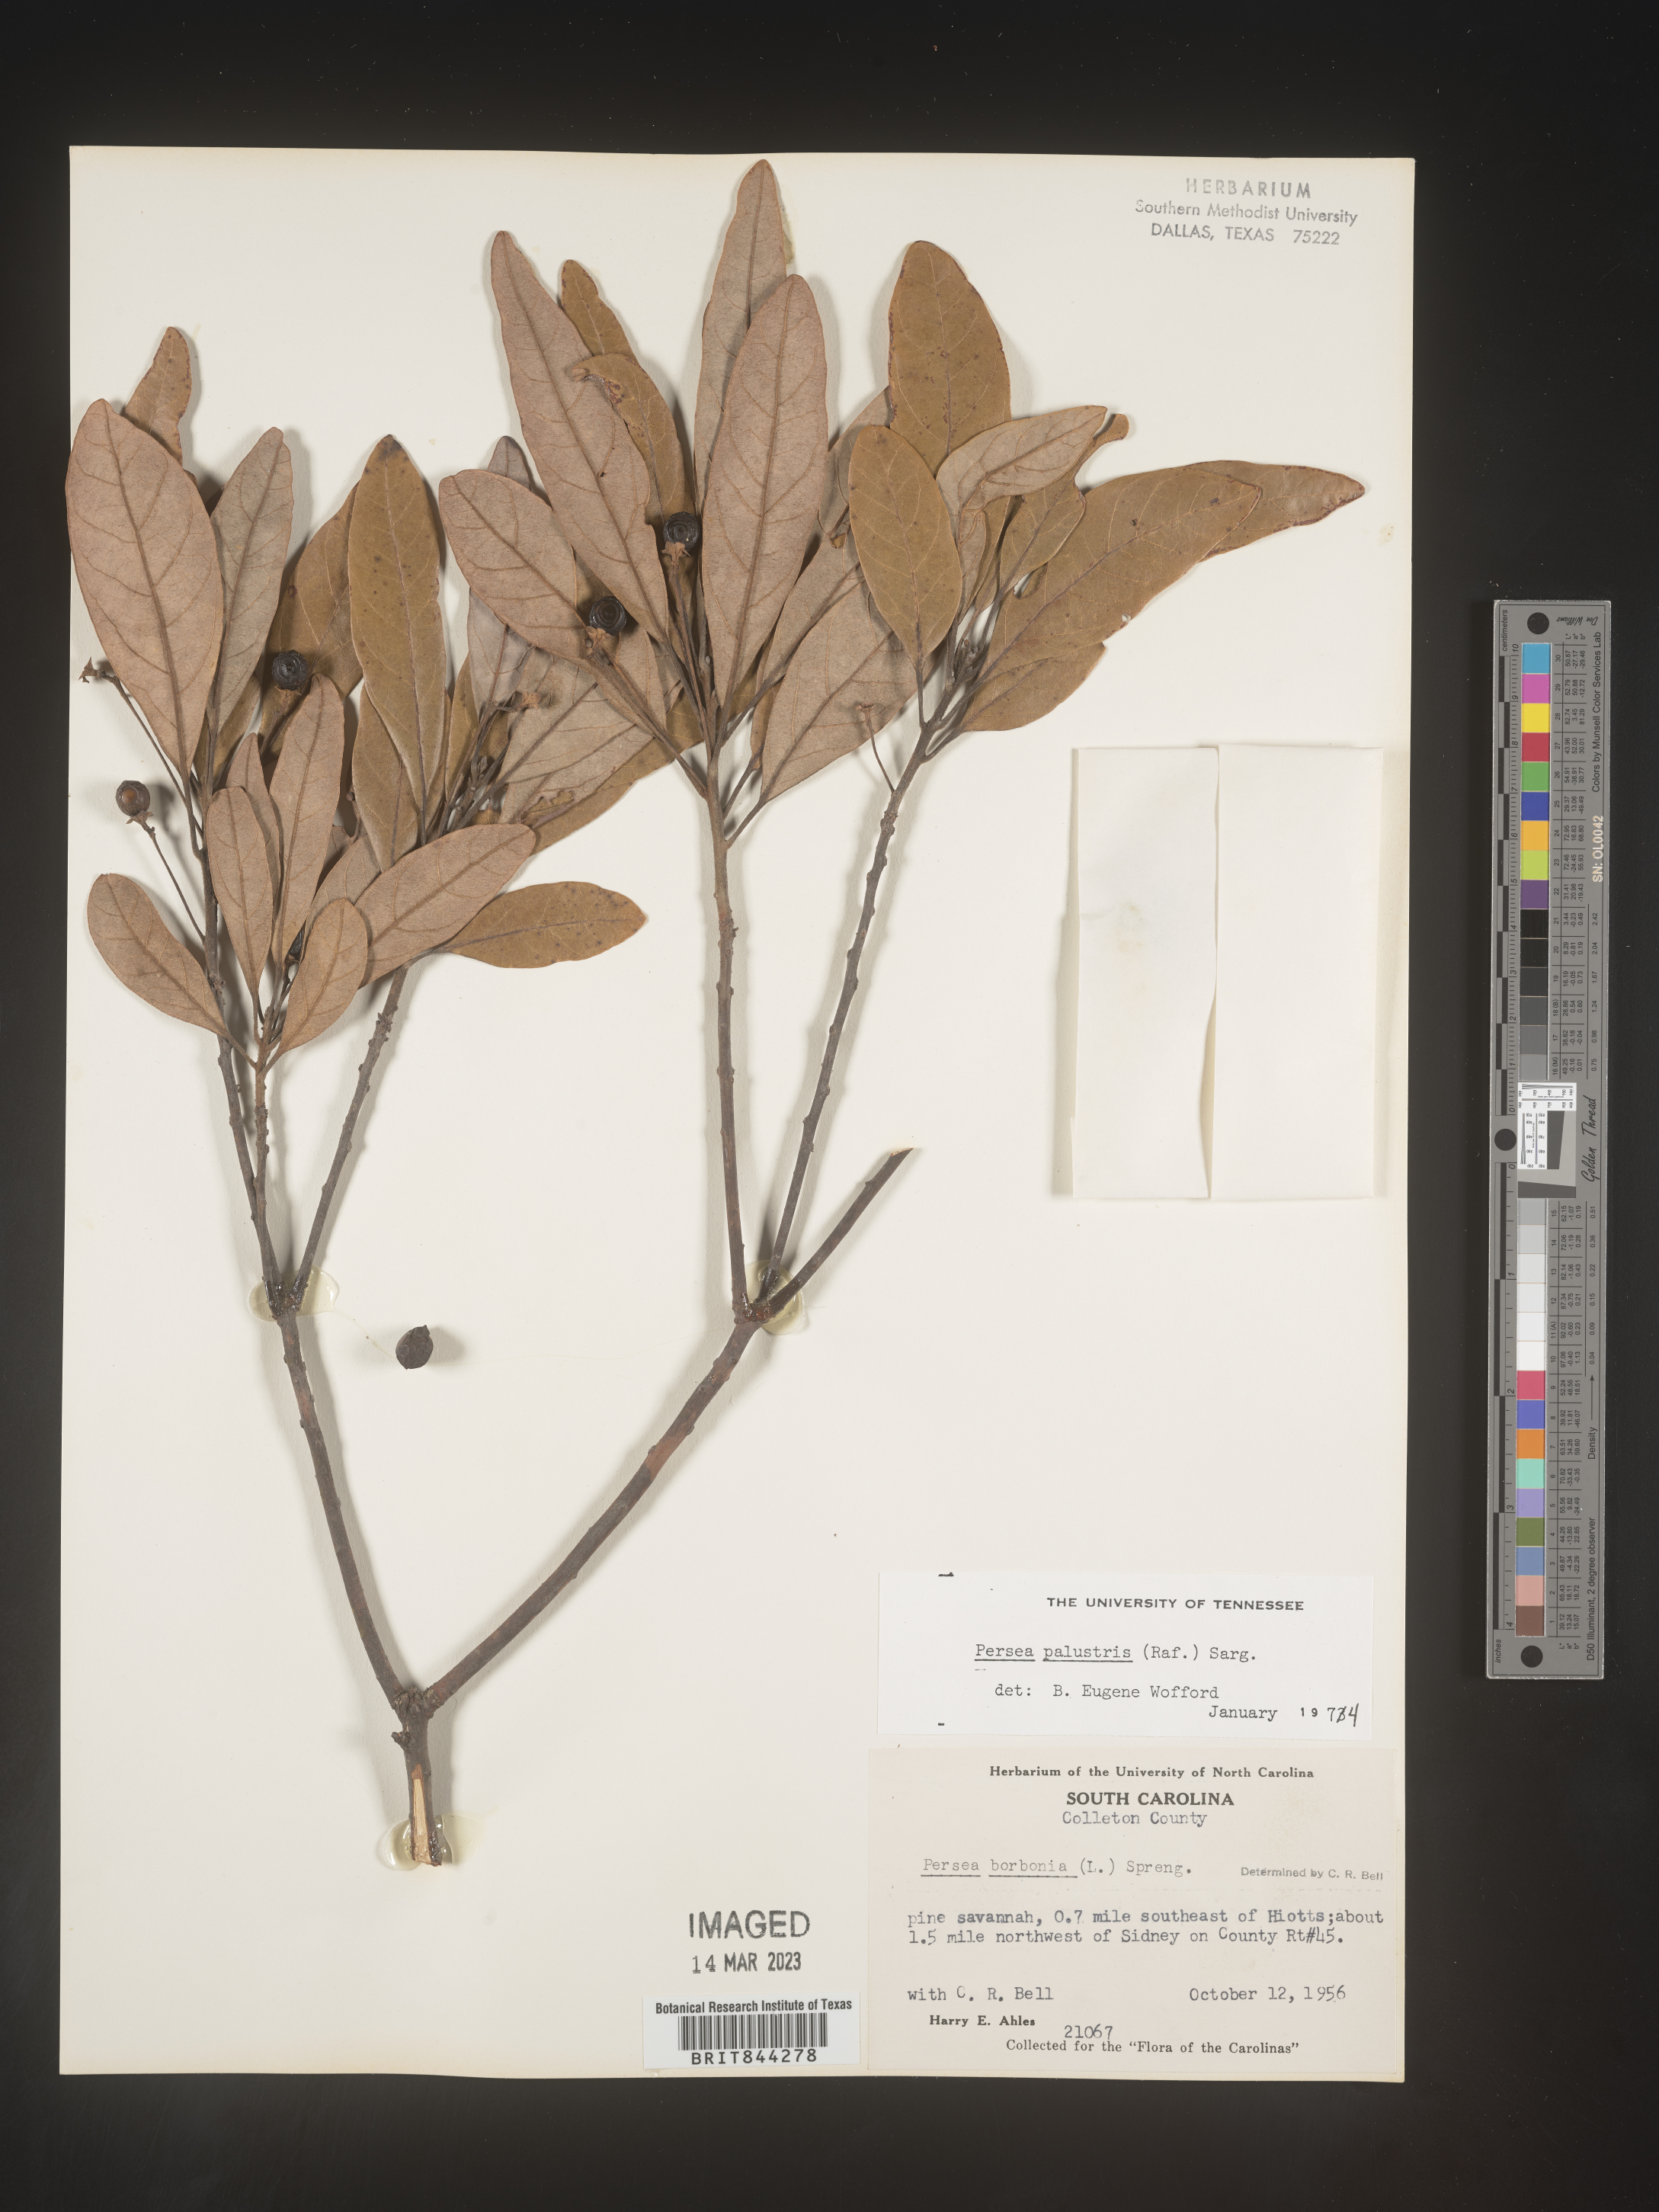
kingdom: Plantae
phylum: Tracheophyta
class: Magnoliopsida
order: Laurales
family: Lauraceae
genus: Persea
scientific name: Persea palustris
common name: Swampbay
